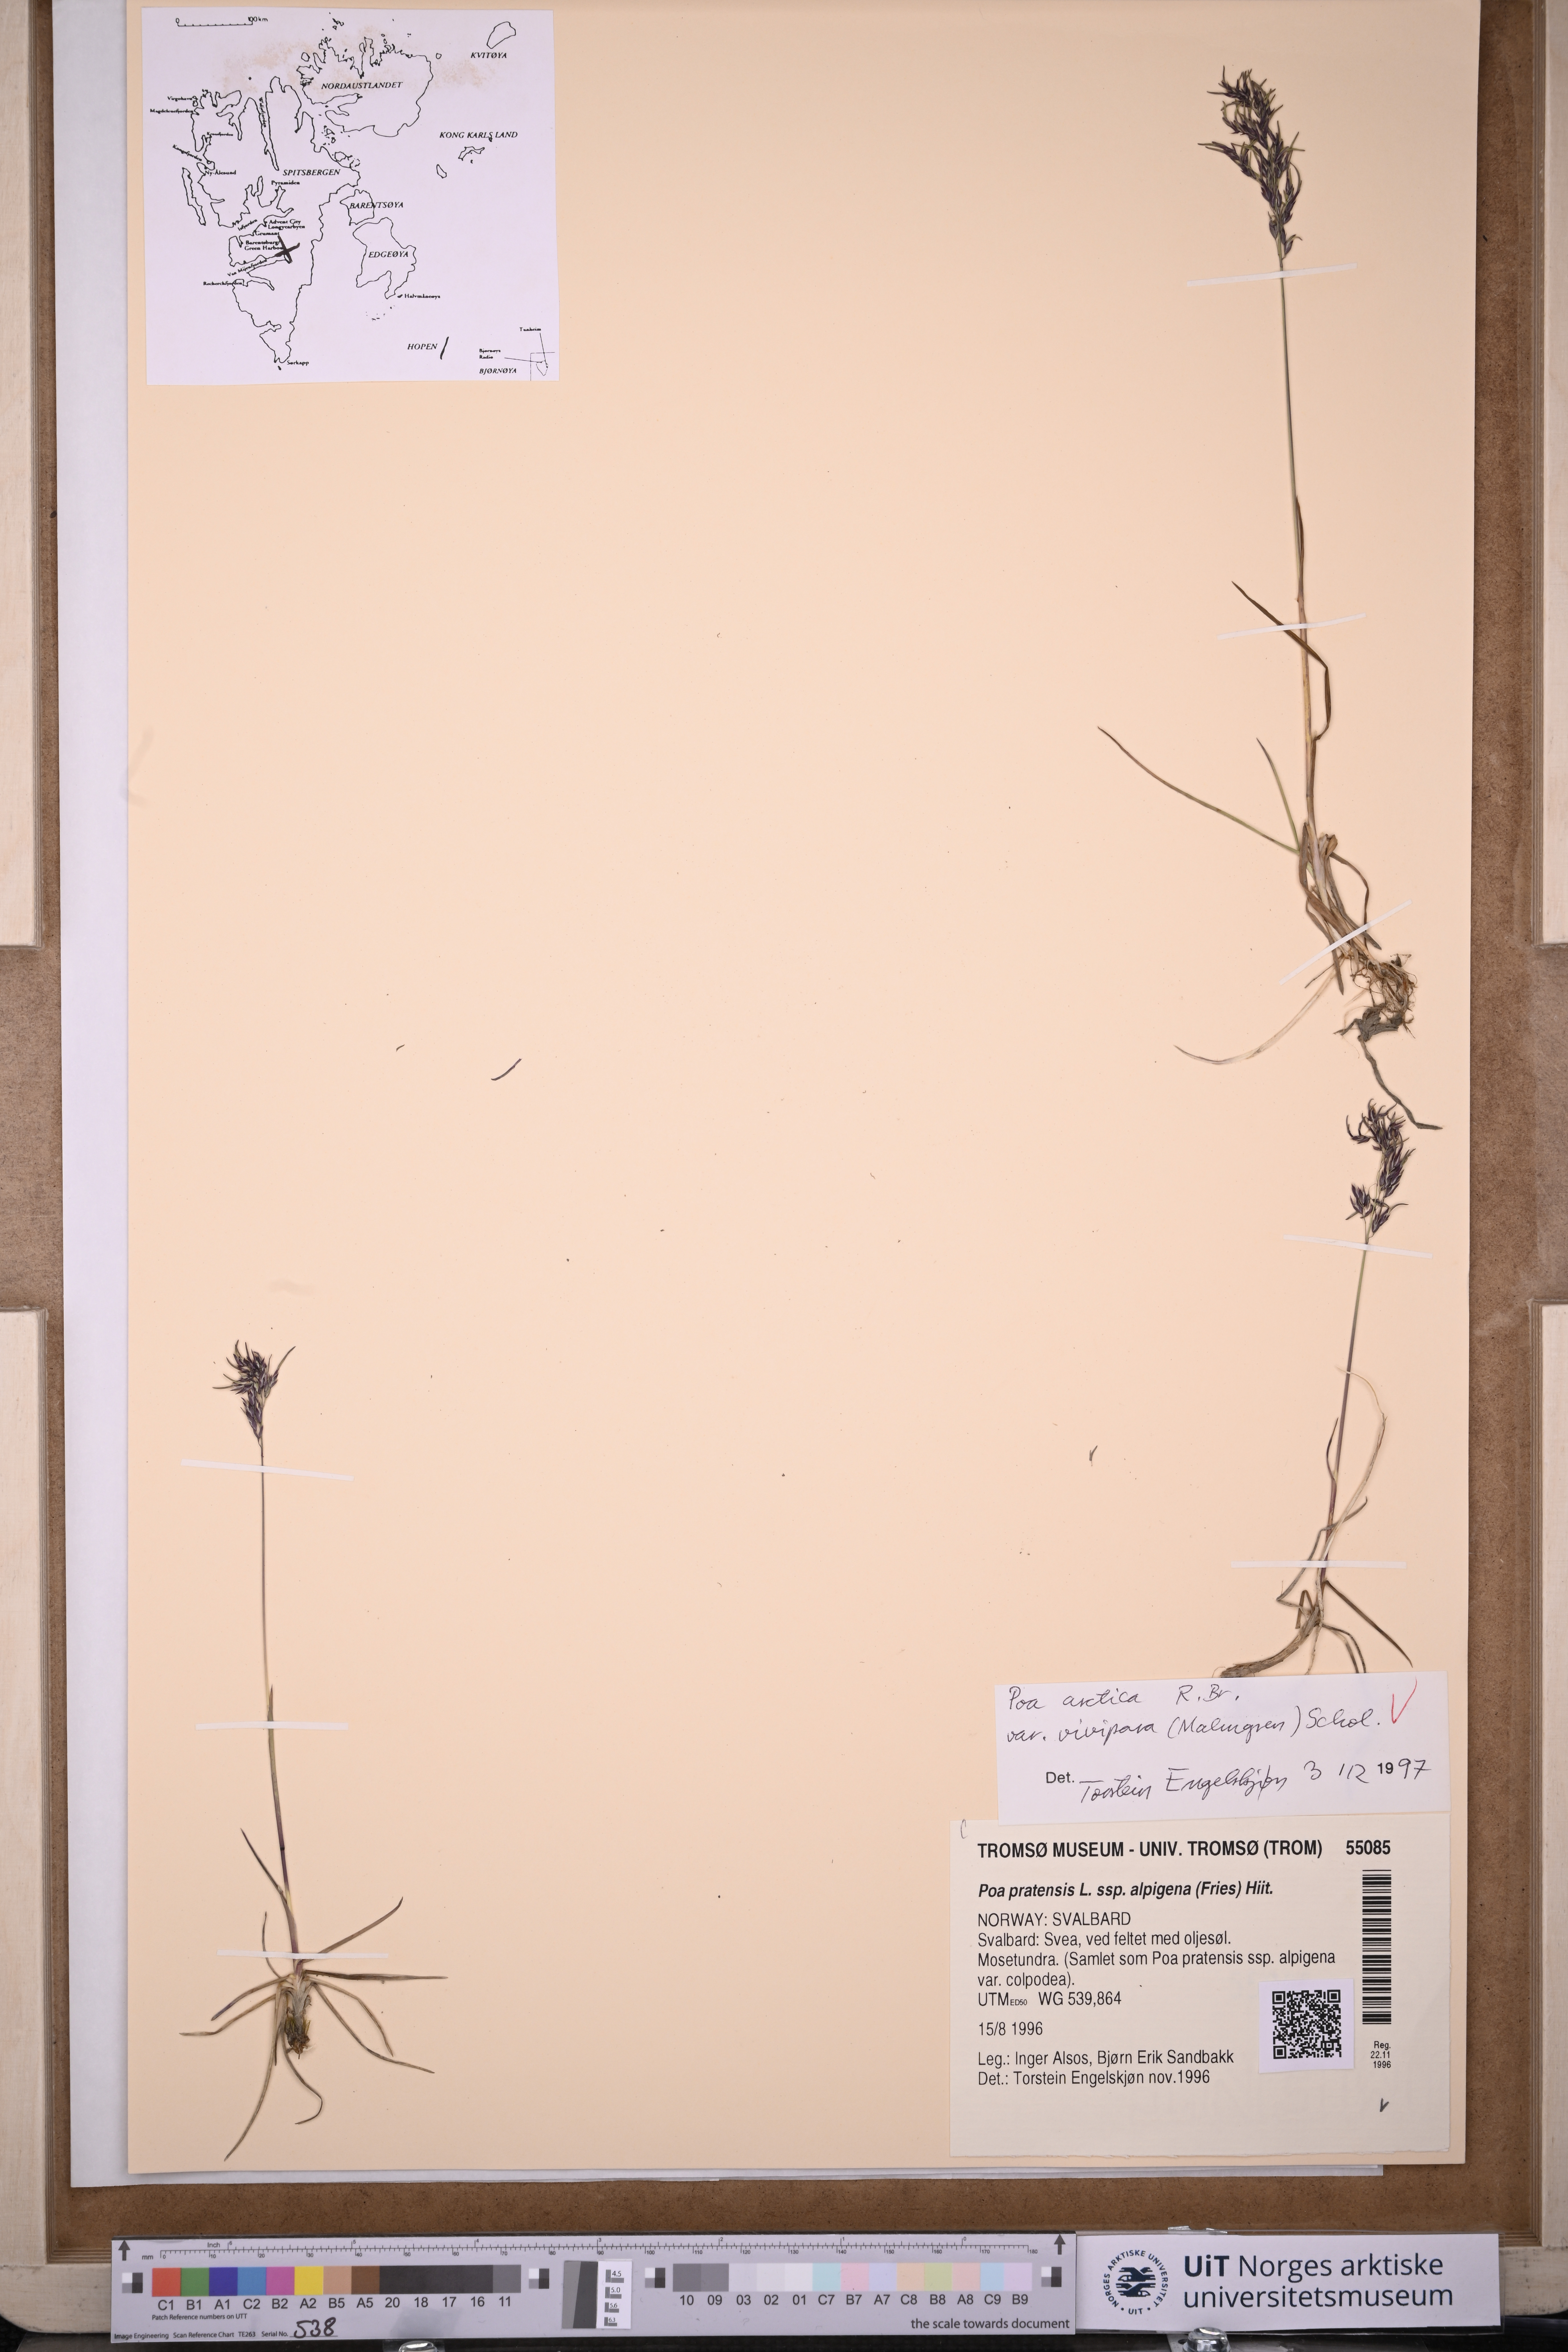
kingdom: Plantae
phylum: Tracheophyta
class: Liliopsida
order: Poales
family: Poaceae
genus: Poa
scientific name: Poa arctica
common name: Arctic bluegrass
